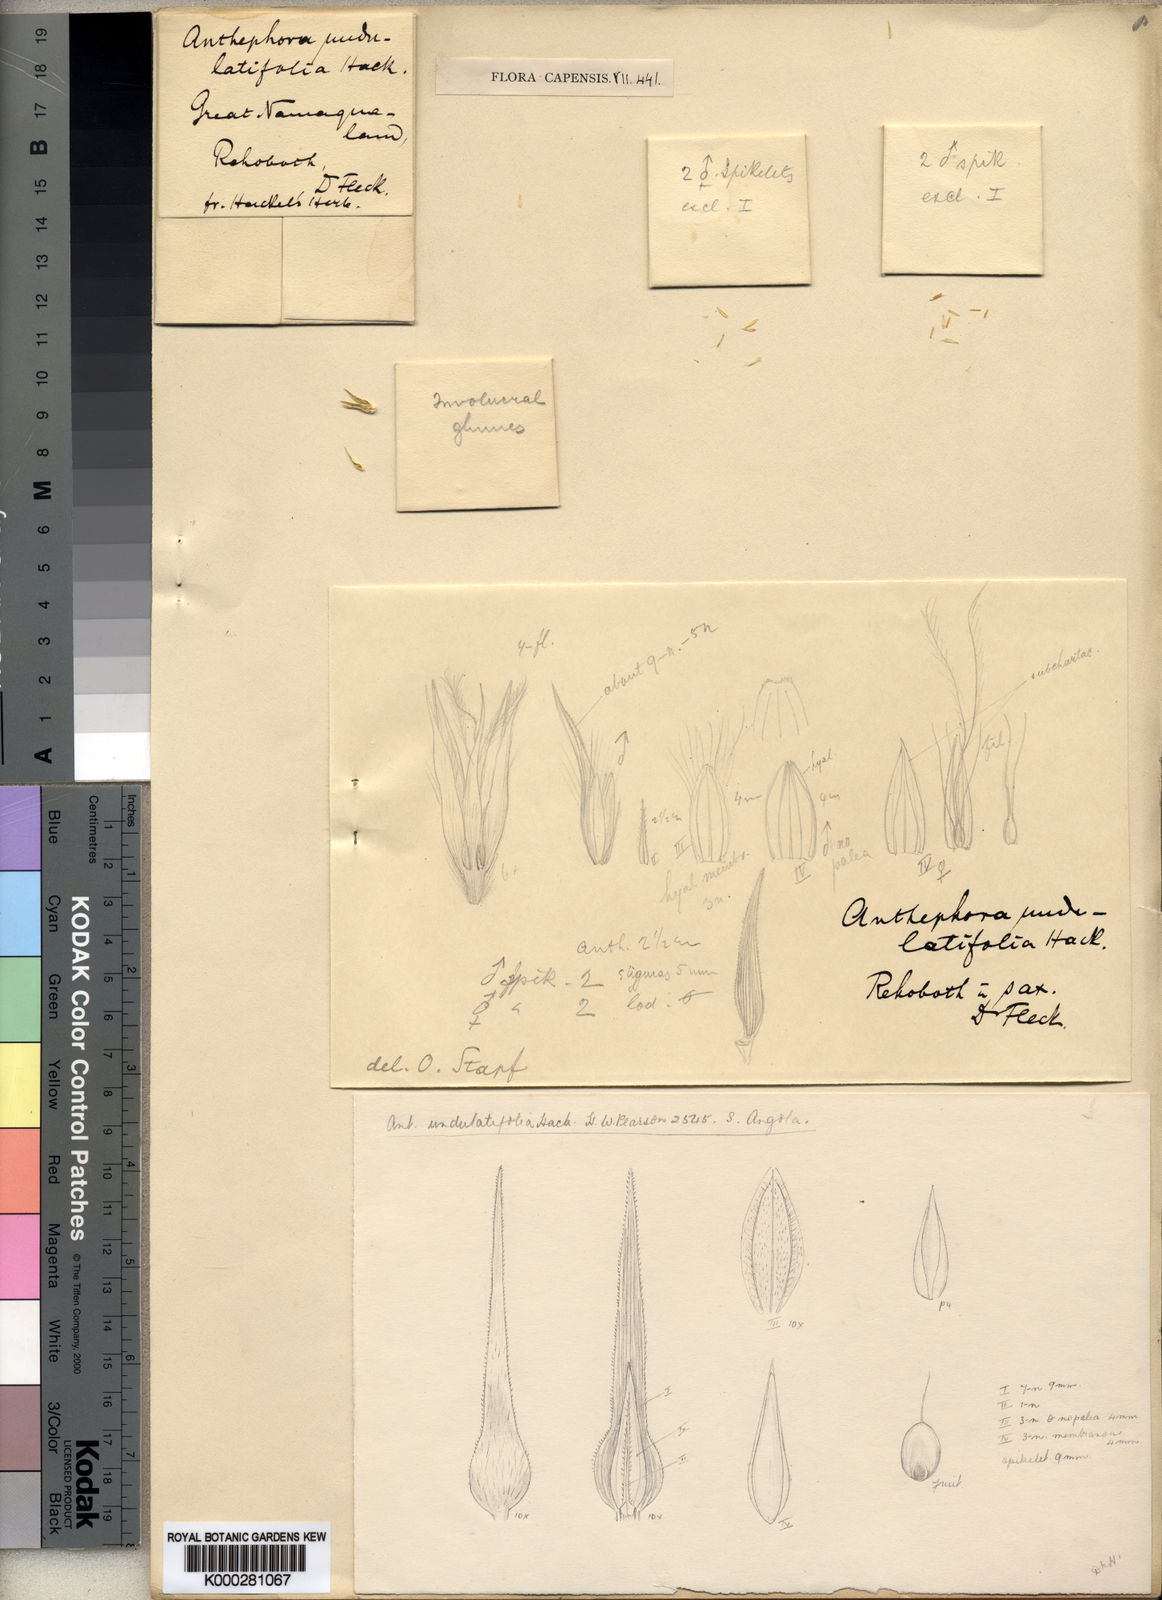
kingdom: Plantae
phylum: Tracheophyta
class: Liliopsida
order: Poales
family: Poaceae
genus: Anthephora
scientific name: Anthephora
